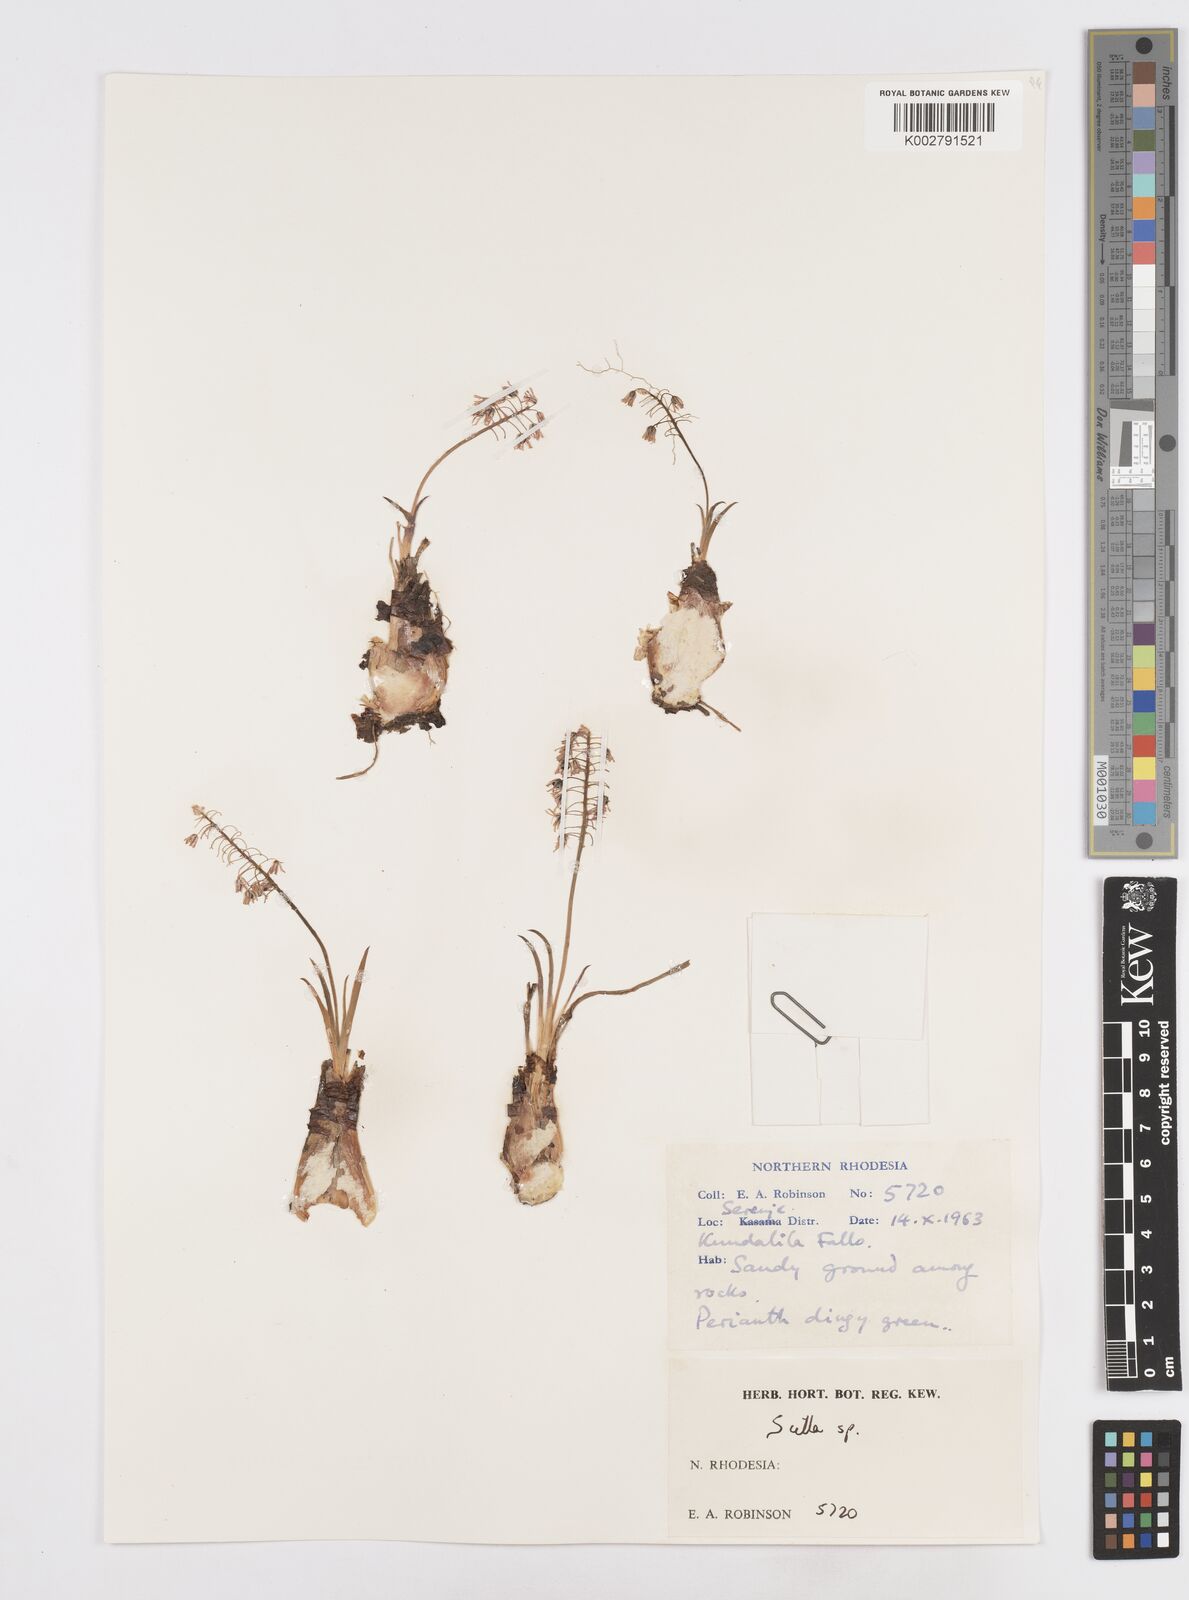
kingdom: Plantae
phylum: Tracheophyta
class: Liliopsida
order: Asparagales
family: Asparagaceae
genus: Scilla
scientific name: Scilla
